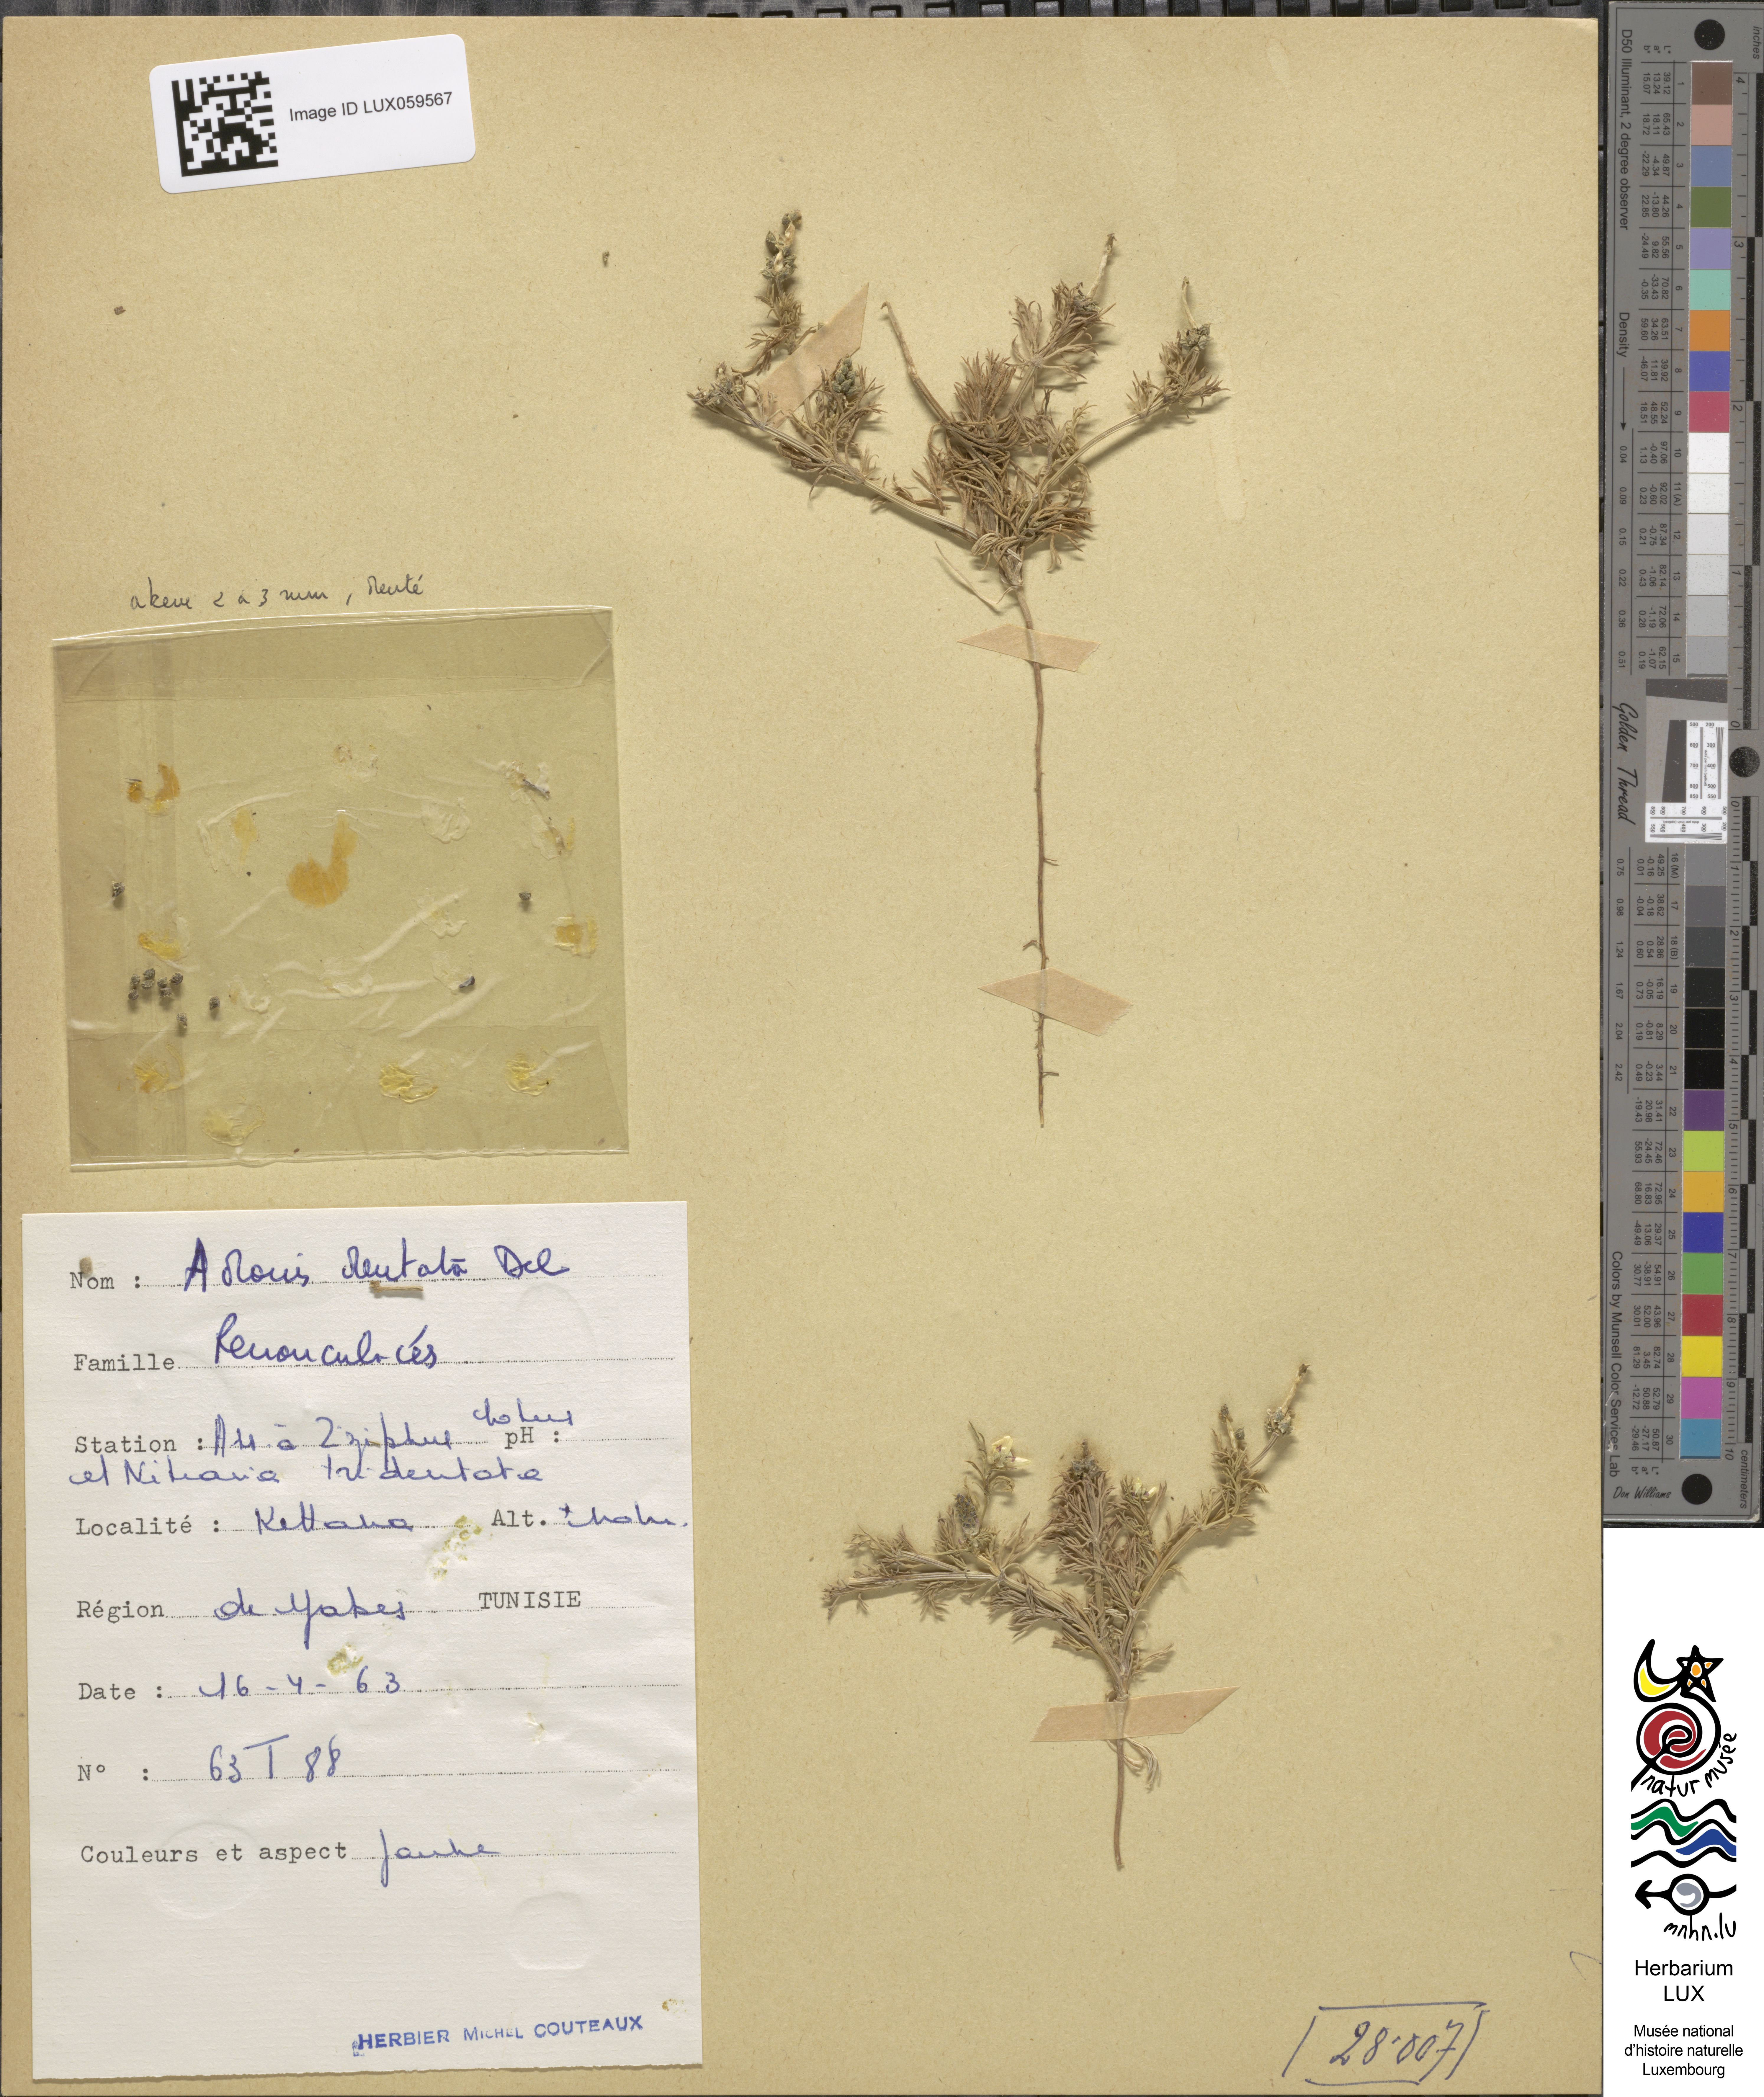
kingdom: Plantae
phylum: Tracheophyta
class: Magnoliopsida
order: Ranunculales
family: Ranunculaceae
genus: Adonis
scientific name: Adonis dentata
